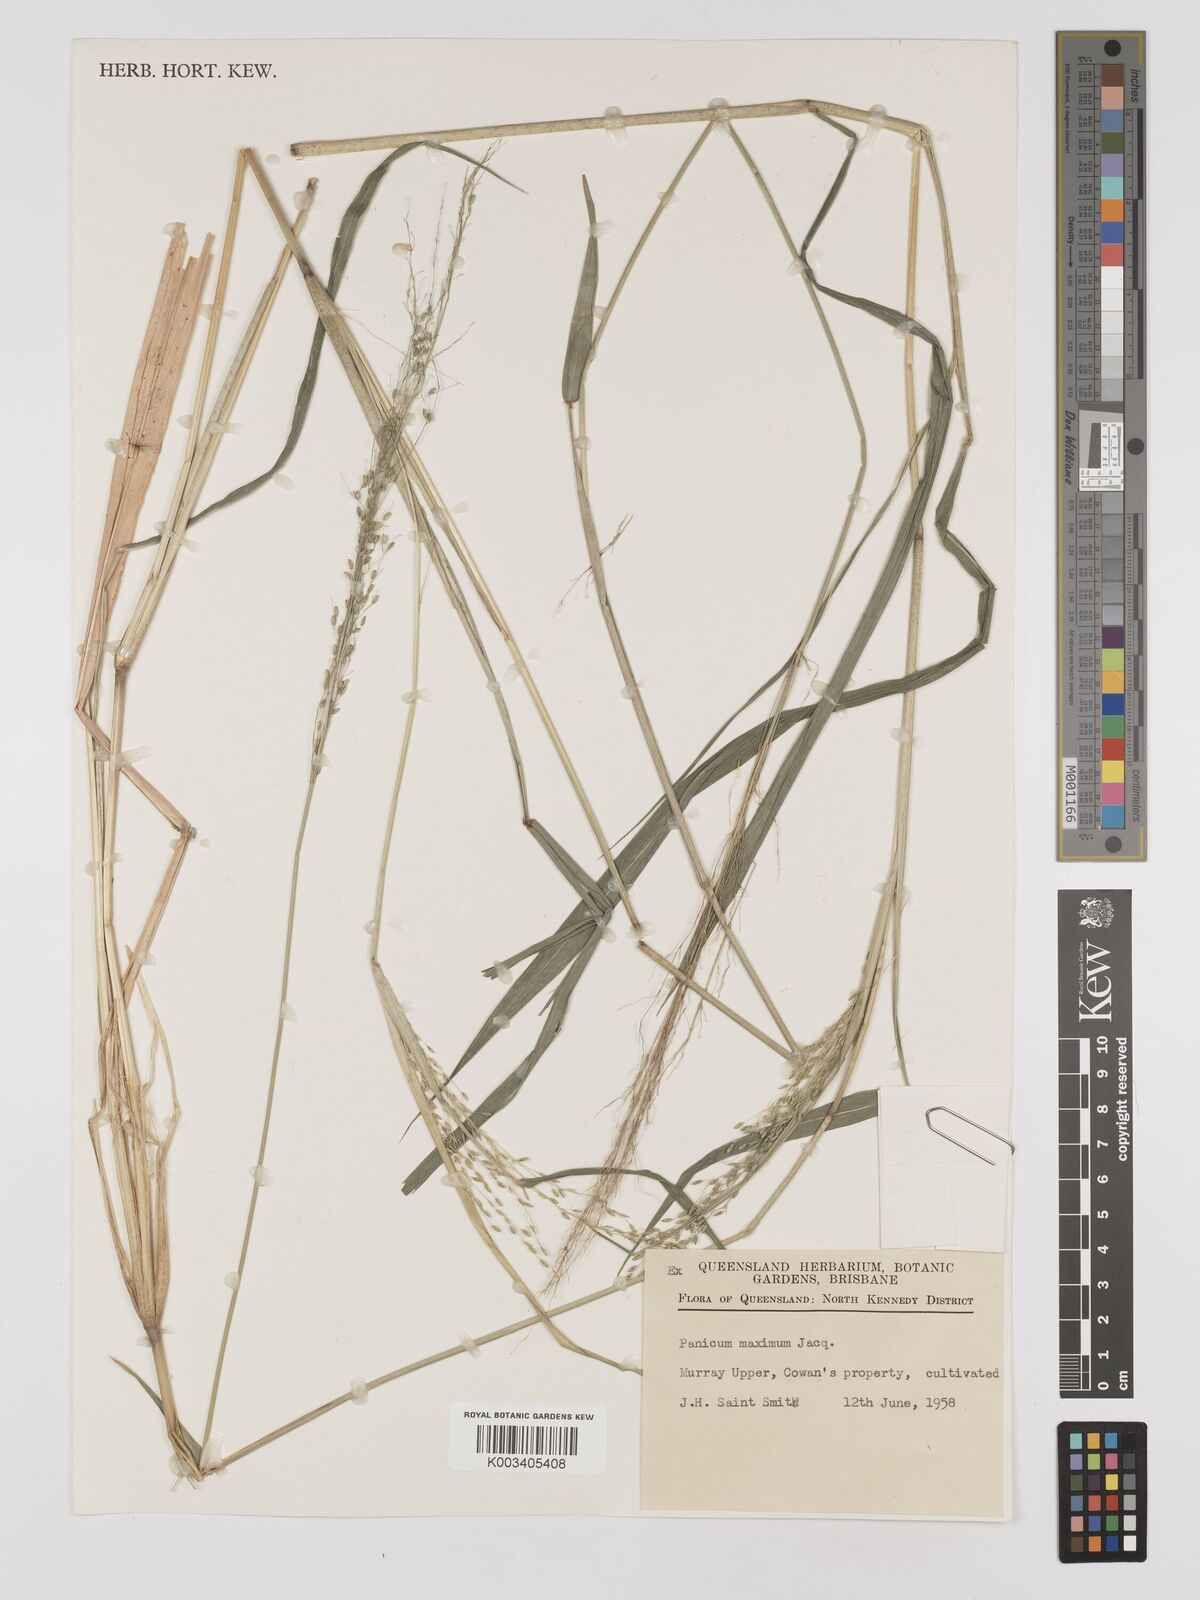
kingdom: Plantae
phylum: Tracheophyta
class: Liliopsida
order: Poales
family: Poaceae
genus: Megathyrsus
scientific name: Megathyrsus maximus
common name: Guineagrass
